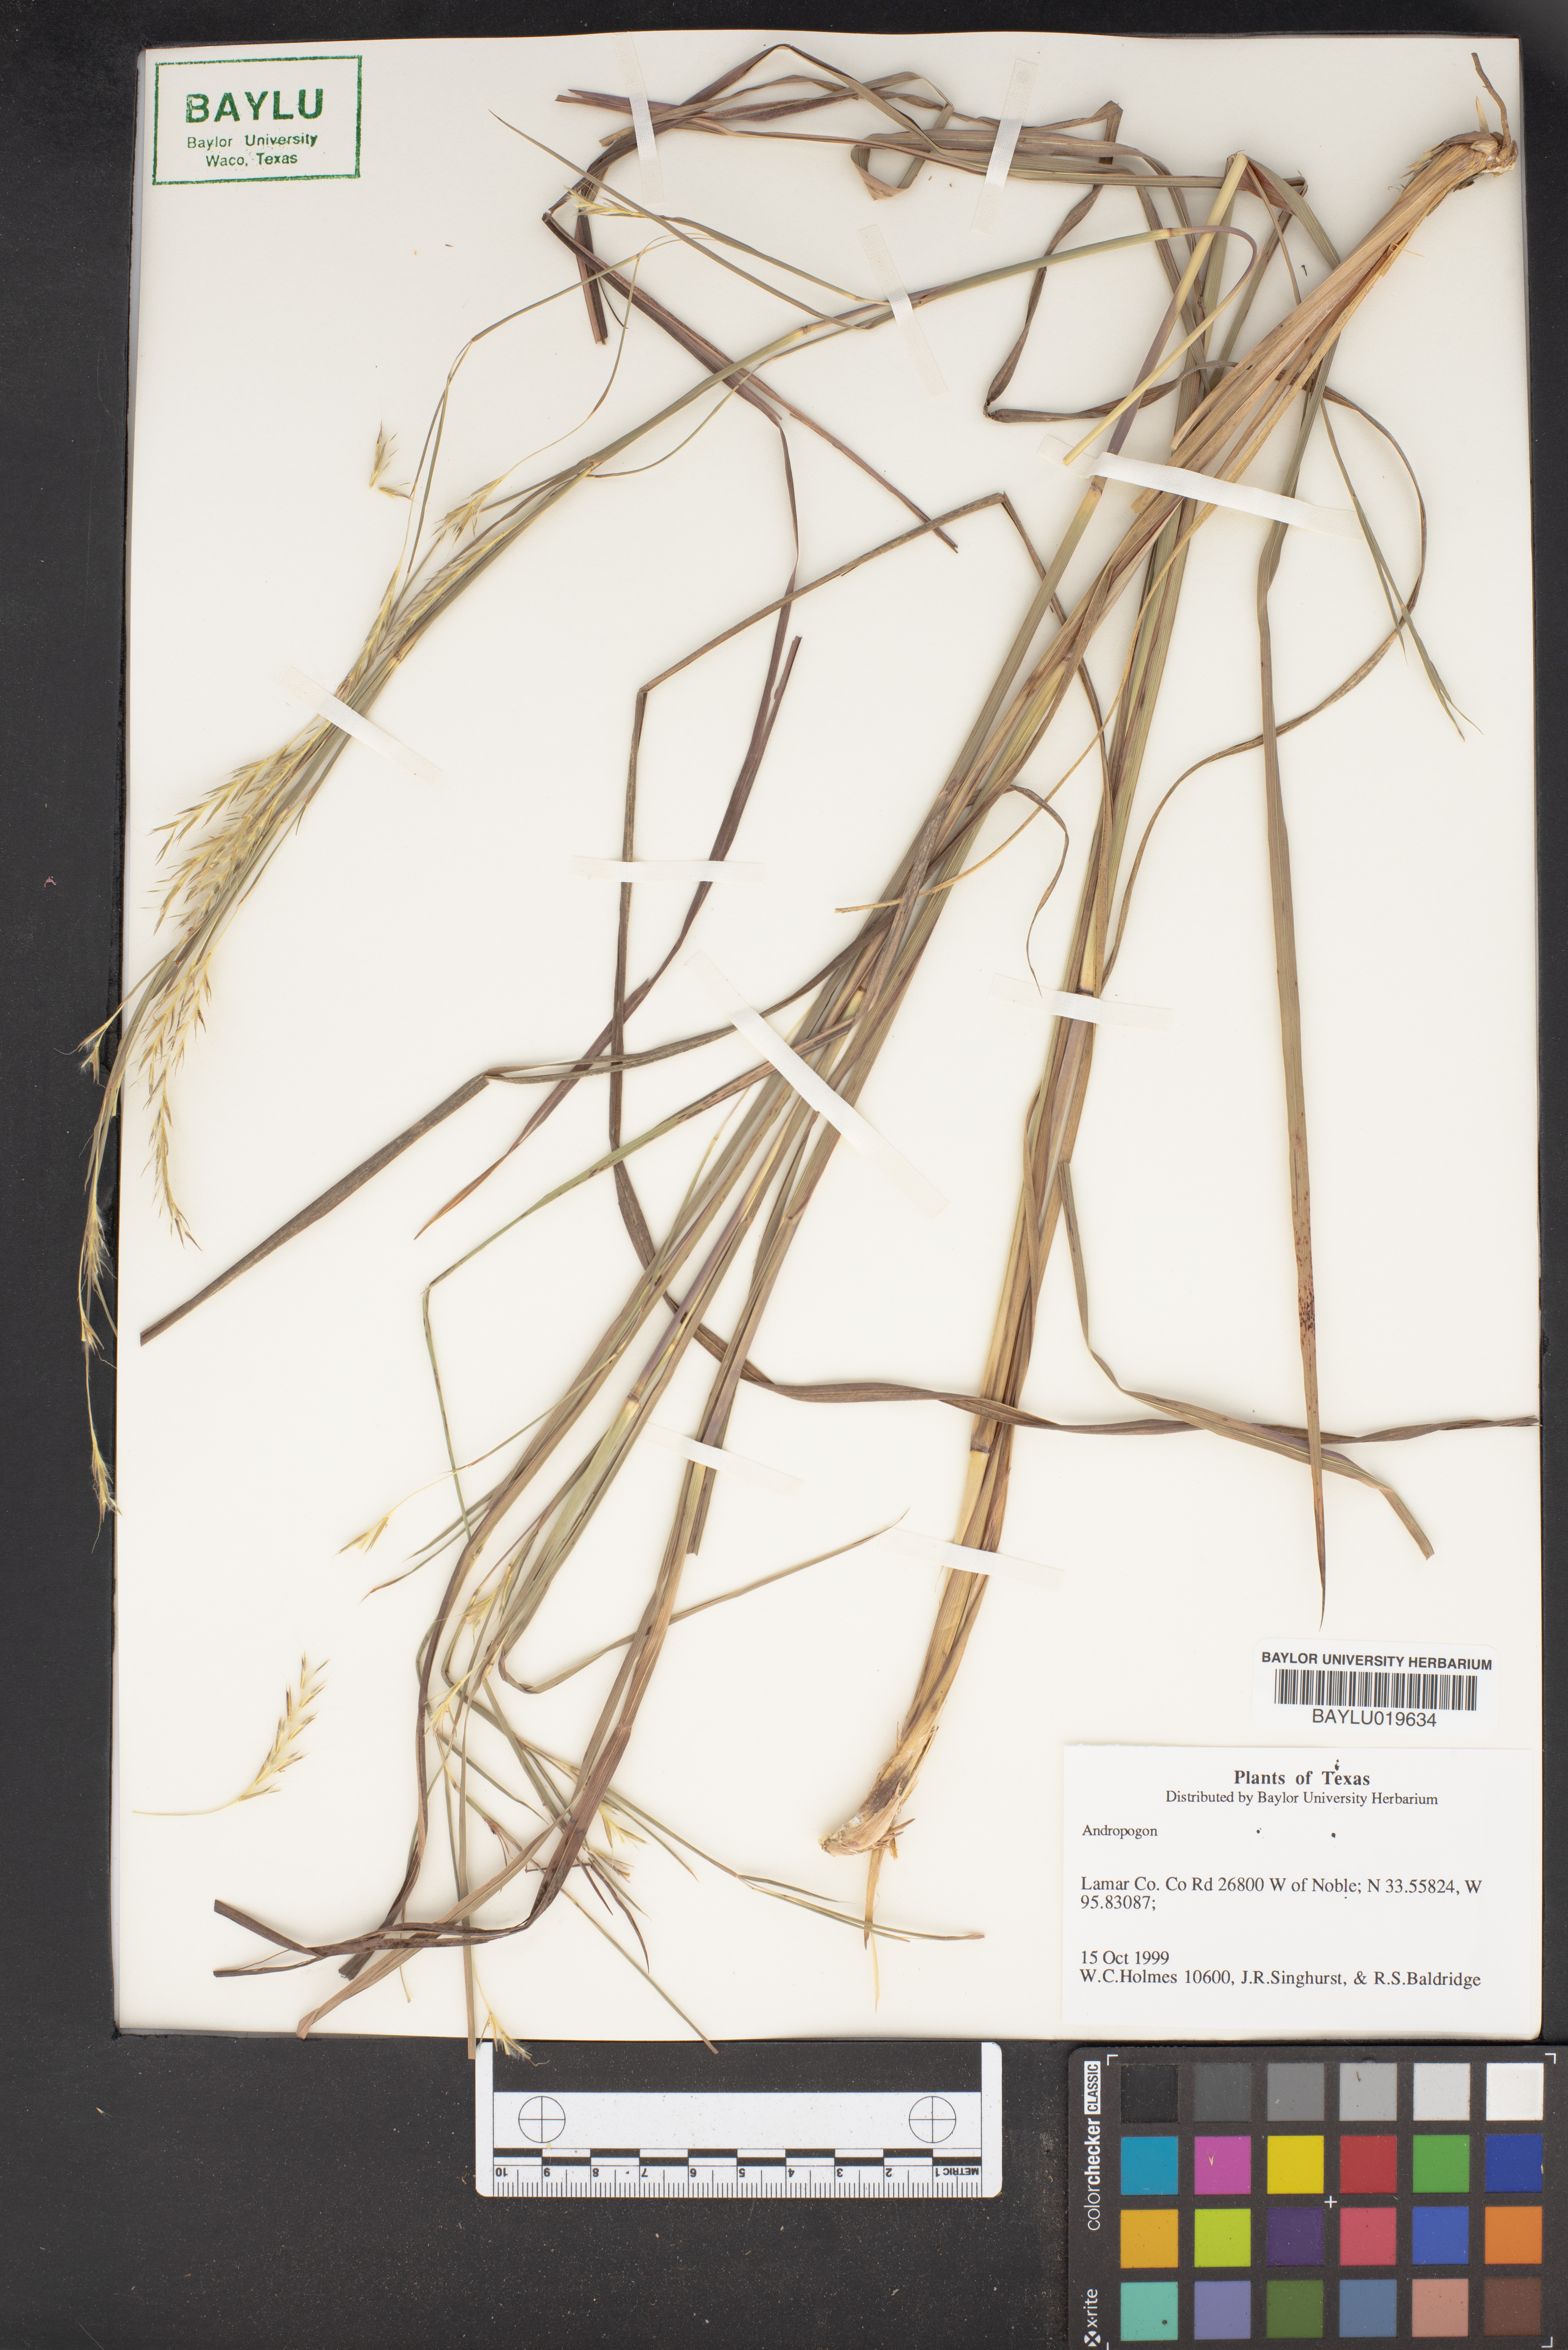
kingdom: Plantae
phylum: Tracheophyta
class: Liliopsida
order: Poales
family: Poaceae
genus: Andropogon
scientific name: Andropogon
